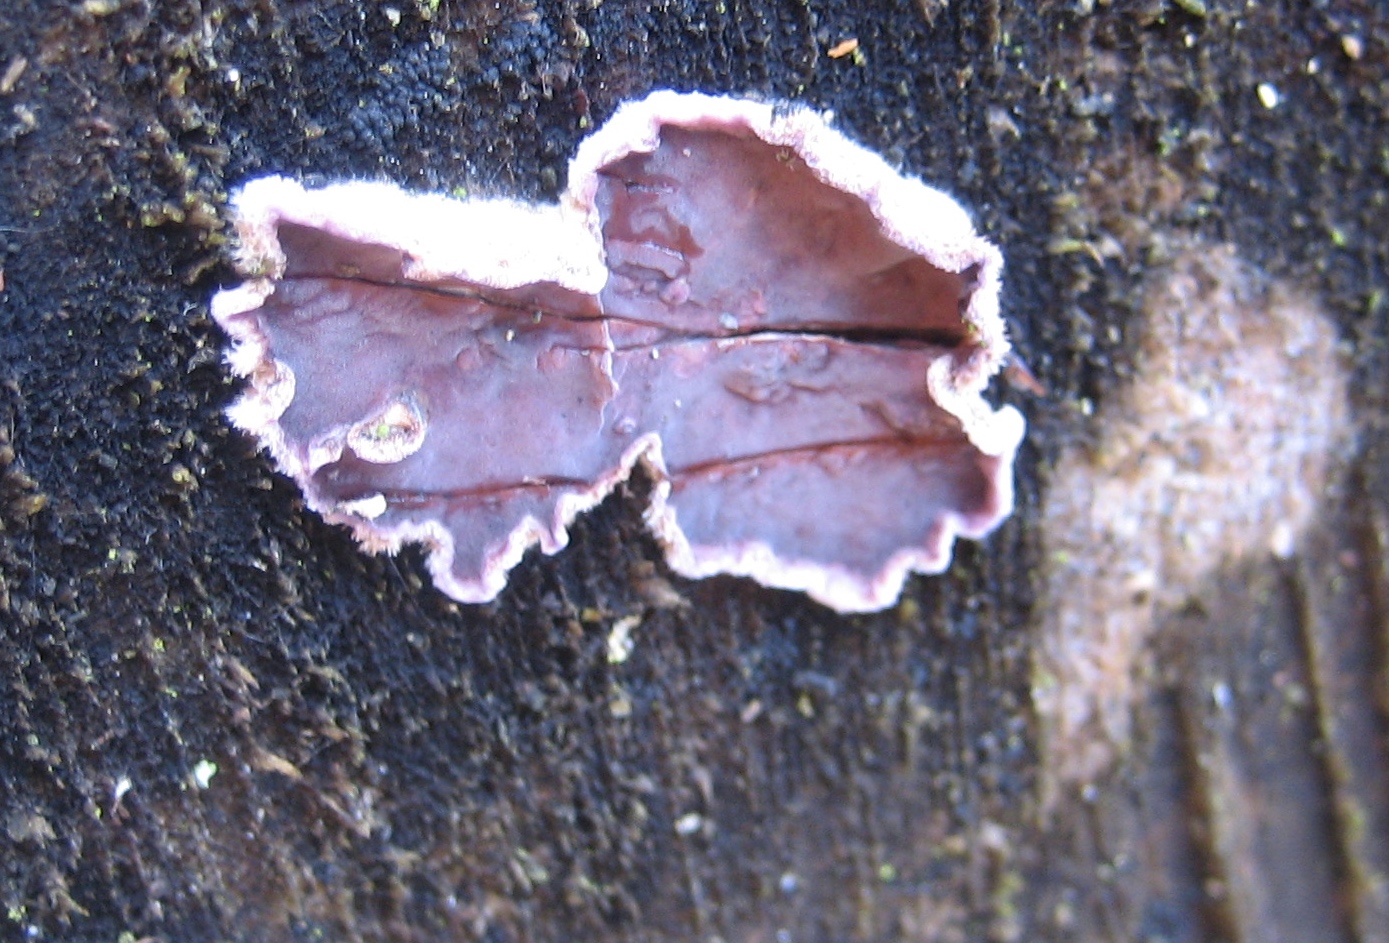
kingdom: Fungi
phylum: Basidiomycota
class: Agaricomycetes
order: Agaricales
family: Cyphellaceae
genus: Chondrostereum
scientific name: Chondrostereum purpureum
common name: purpurlædersvamp
